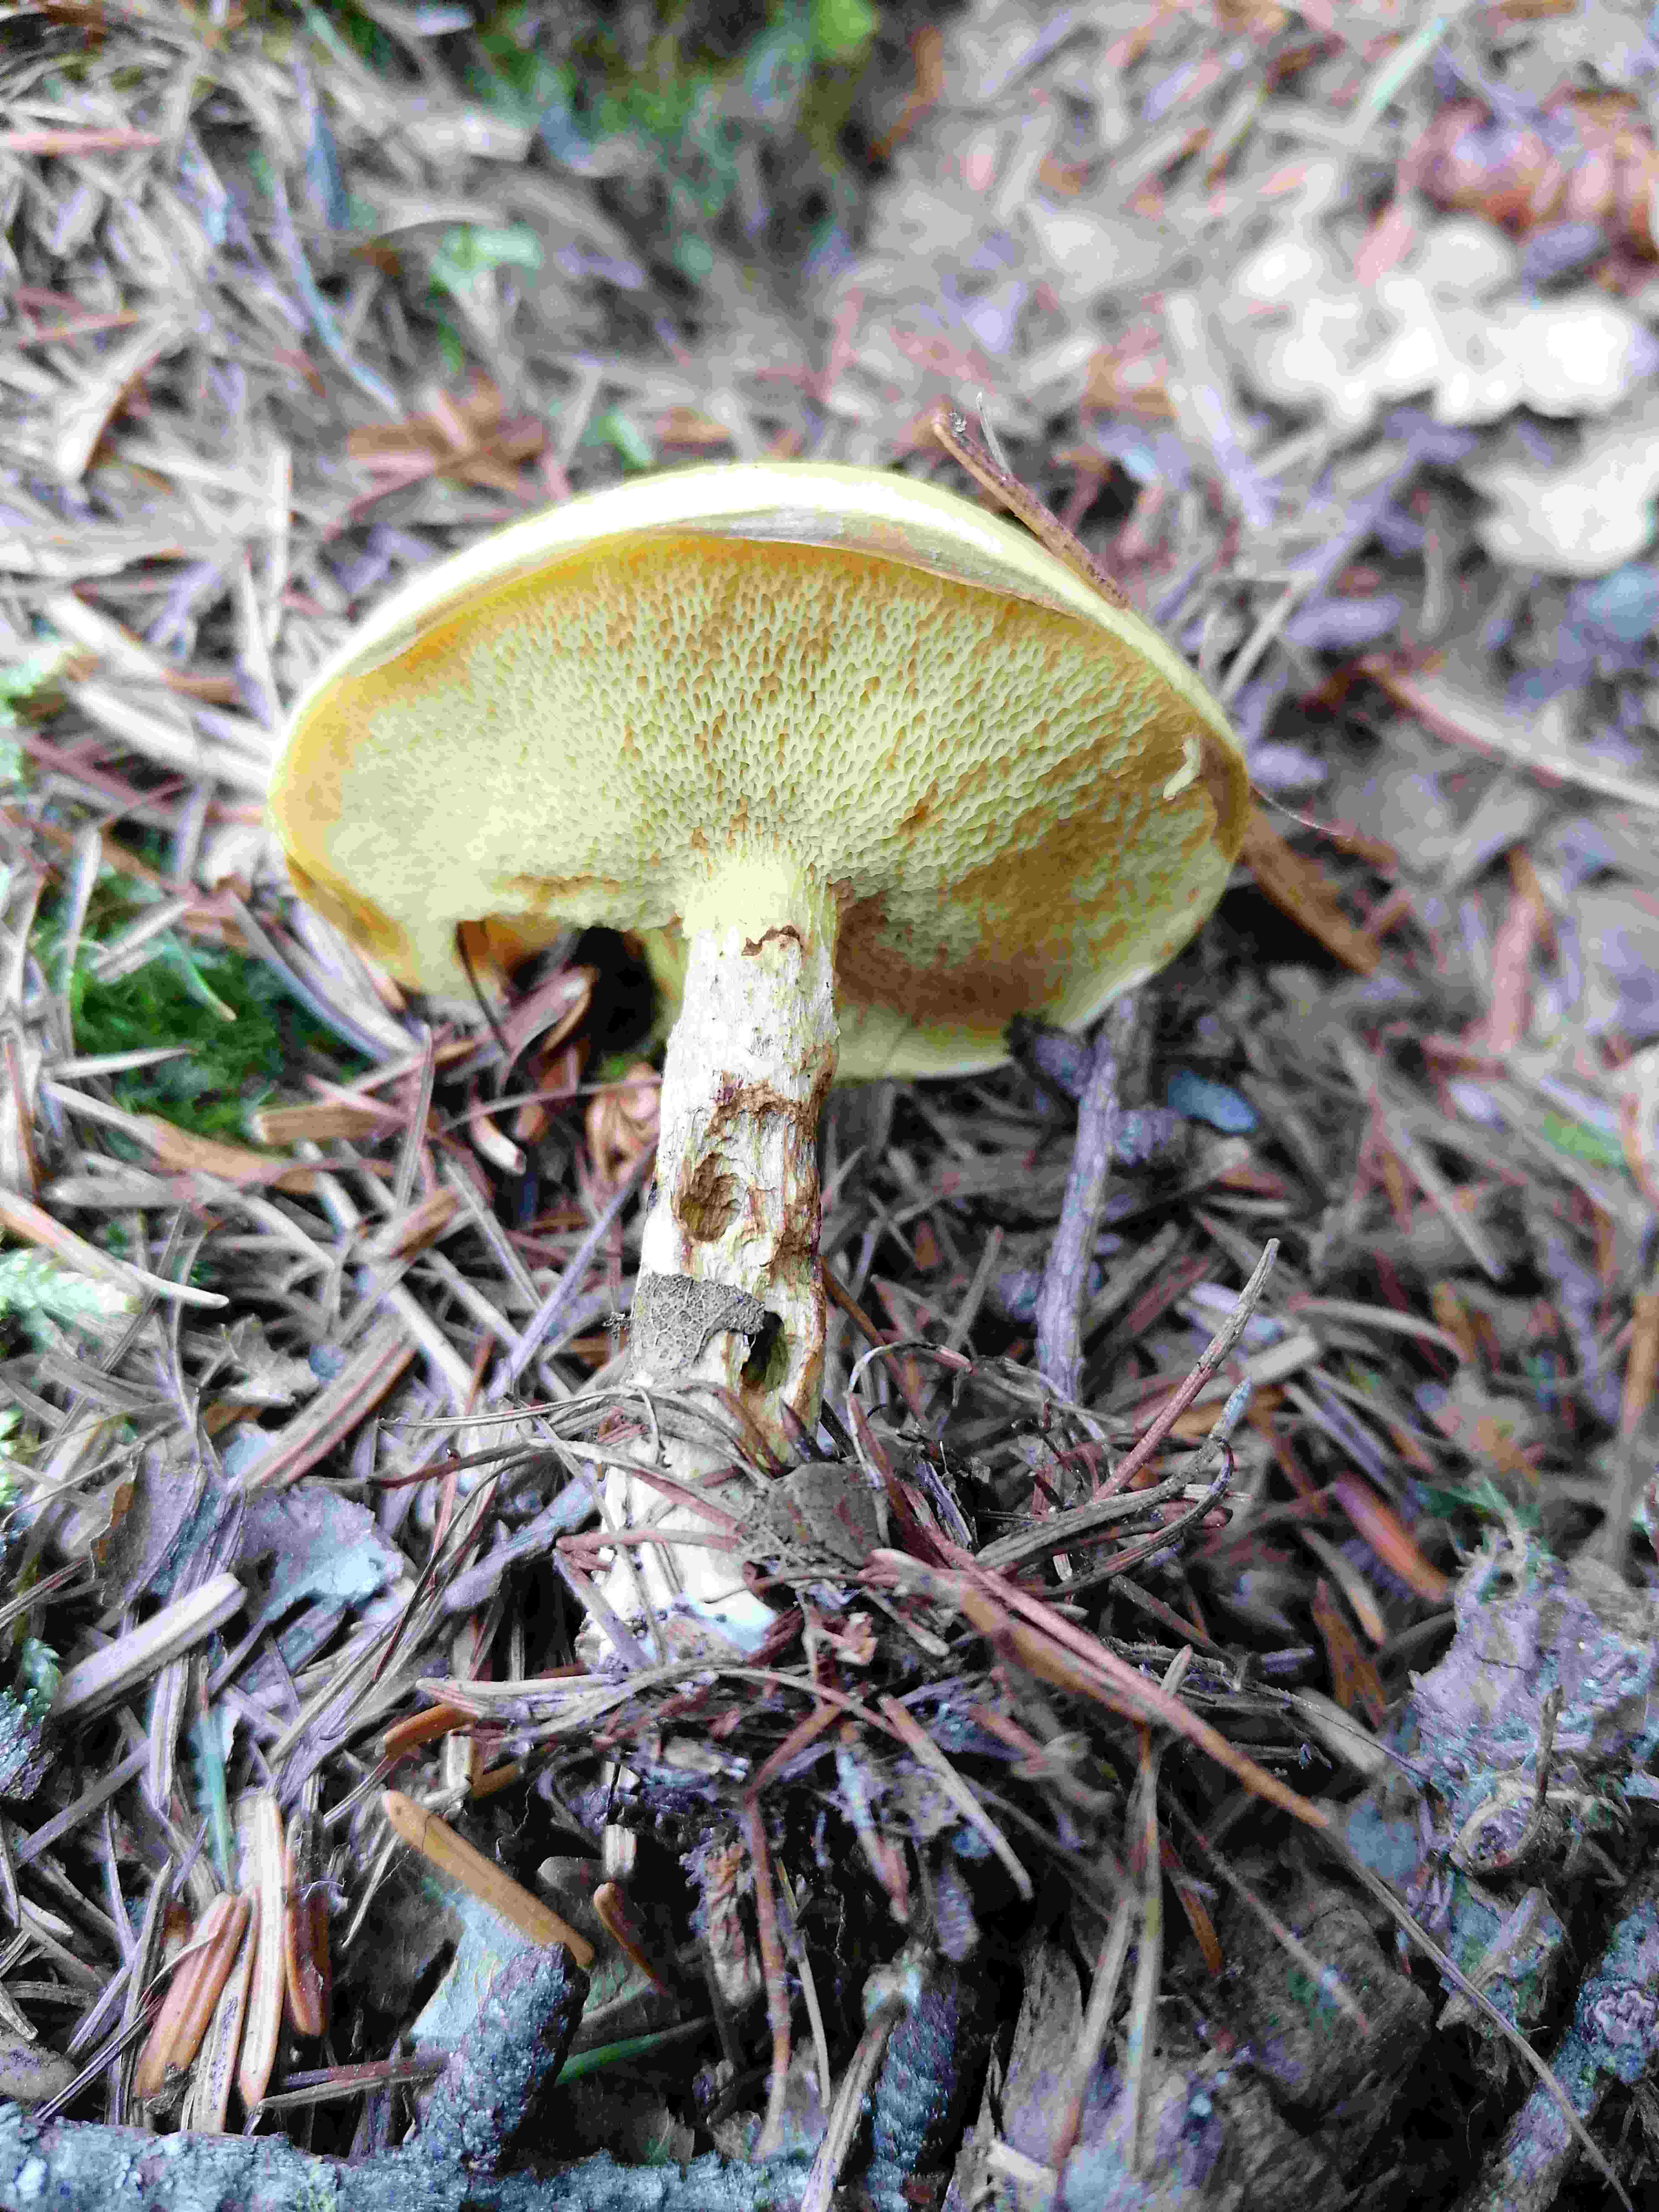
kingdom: Fungi
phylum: Basidiomycota
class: Agaricomycetes
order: Boletales
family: Suillaceae
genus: Suillus
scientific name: Suillus grevillei
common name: lærke-slimrørhat
